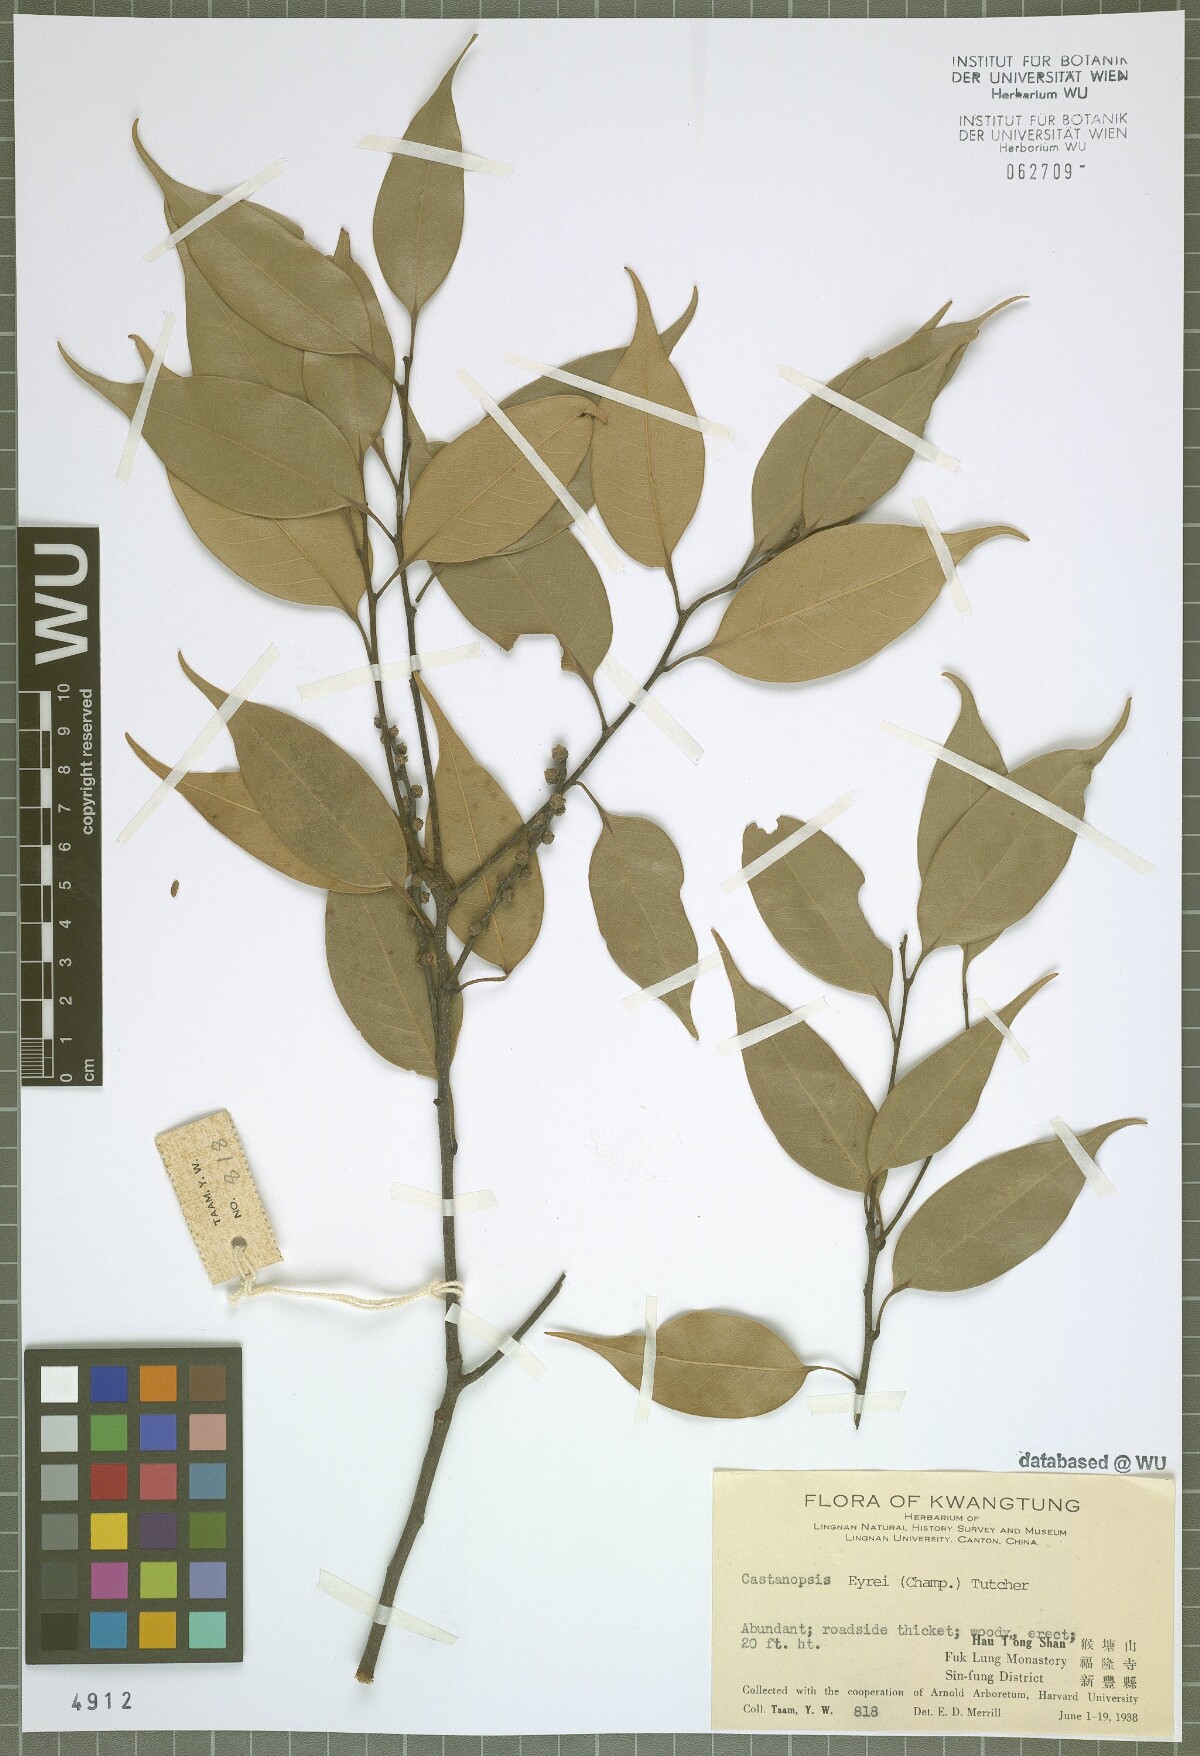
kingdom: Plantae
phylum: Tracheophyta
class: Magnoliopsida
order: Fagales
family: Fagaceae
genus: Castanopsis
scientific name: Castanopsis eyrei
